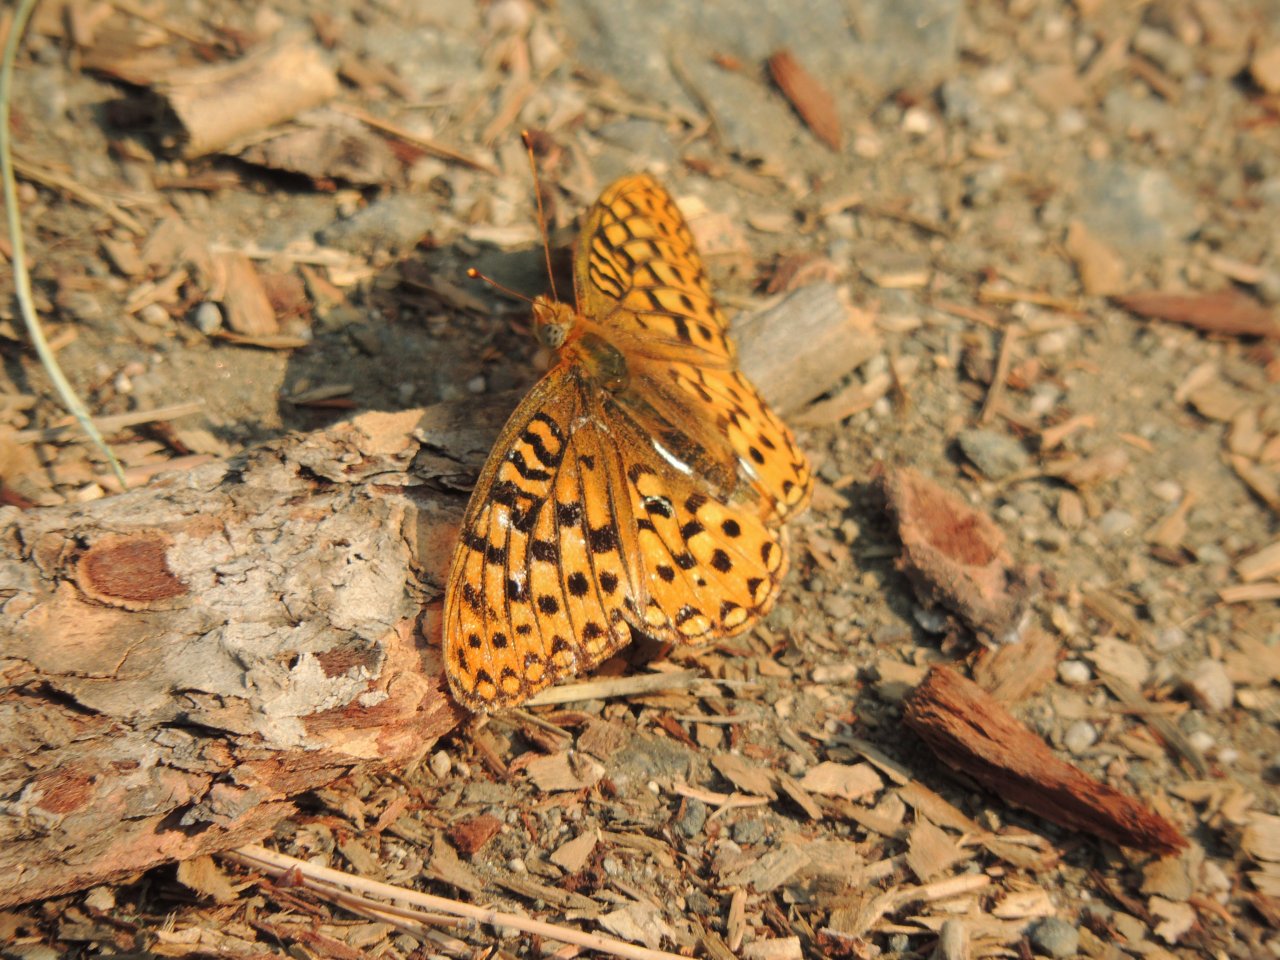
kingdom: Animalia
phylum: Arthropoda
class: Insecta
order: Lepidoptera
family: Nymphalidae
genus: Speyeria
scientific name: Speyeria
